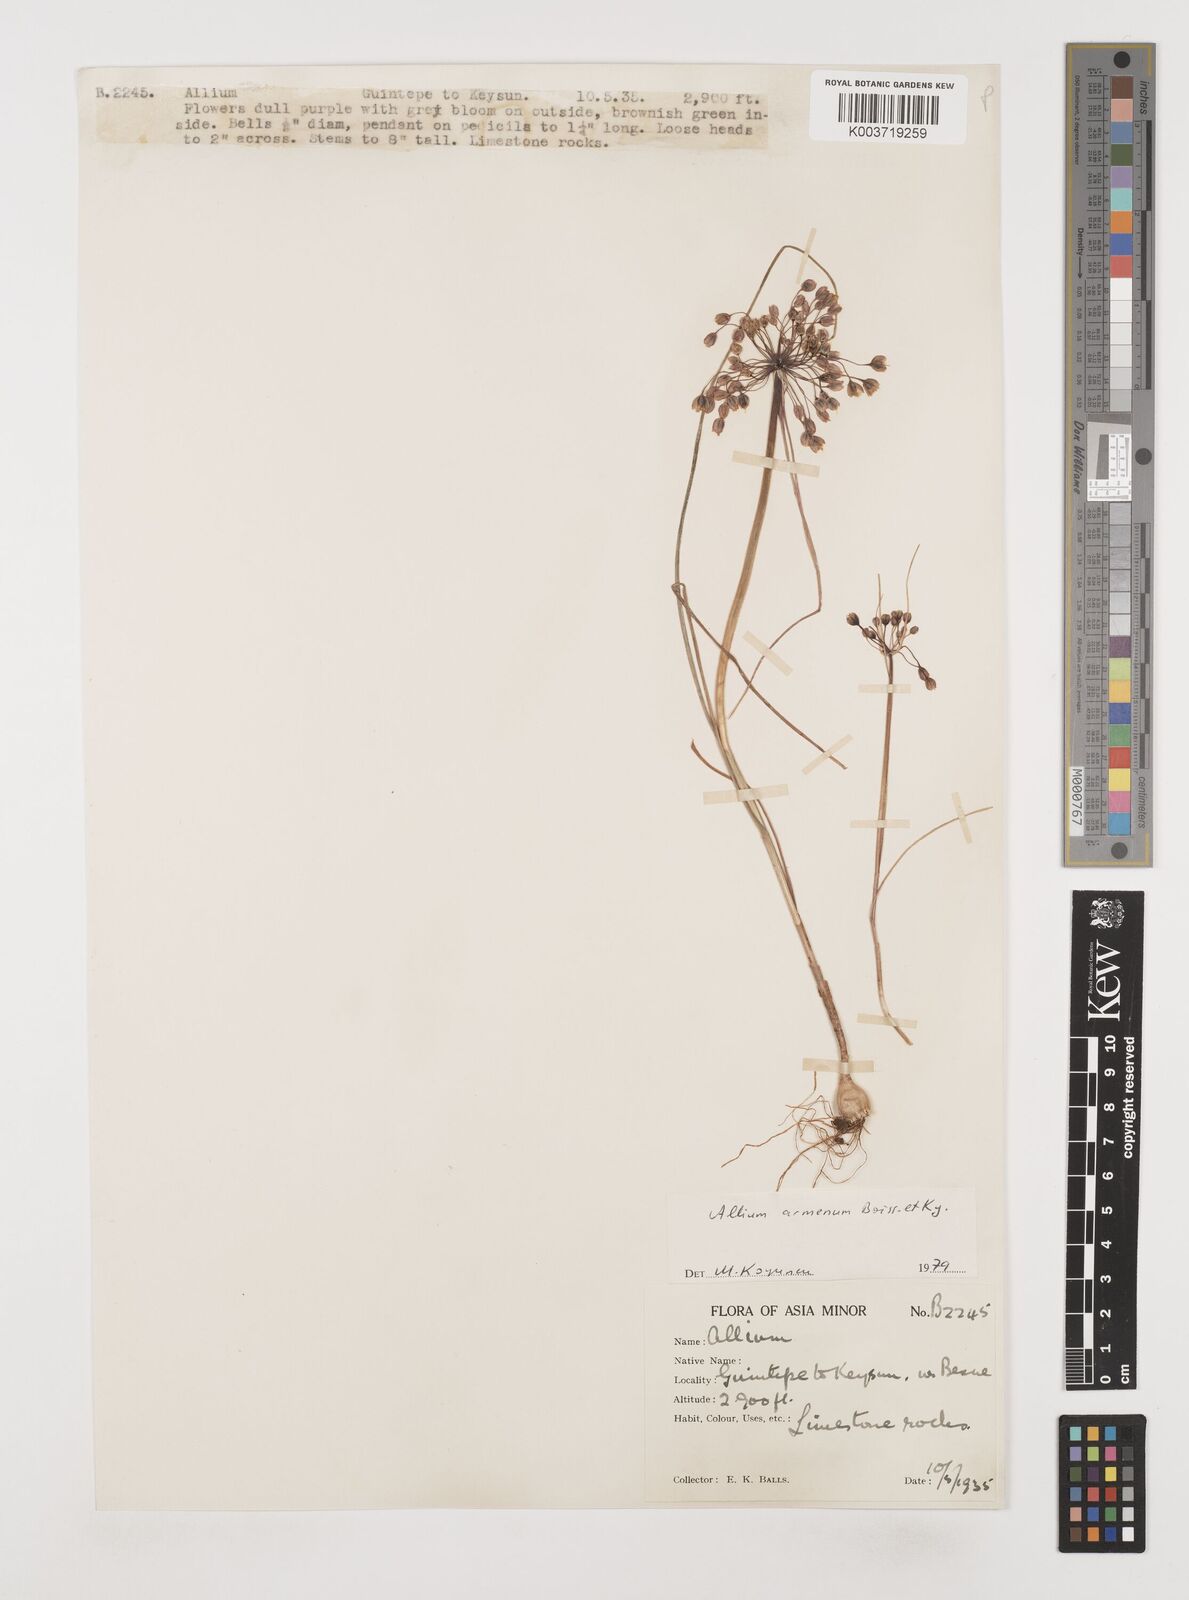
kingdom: Plantae
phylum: Tracheophyta
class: Liliopsida
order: Asparagales
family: Amaryllidaceae
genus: Allium
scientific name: Allium armenum
